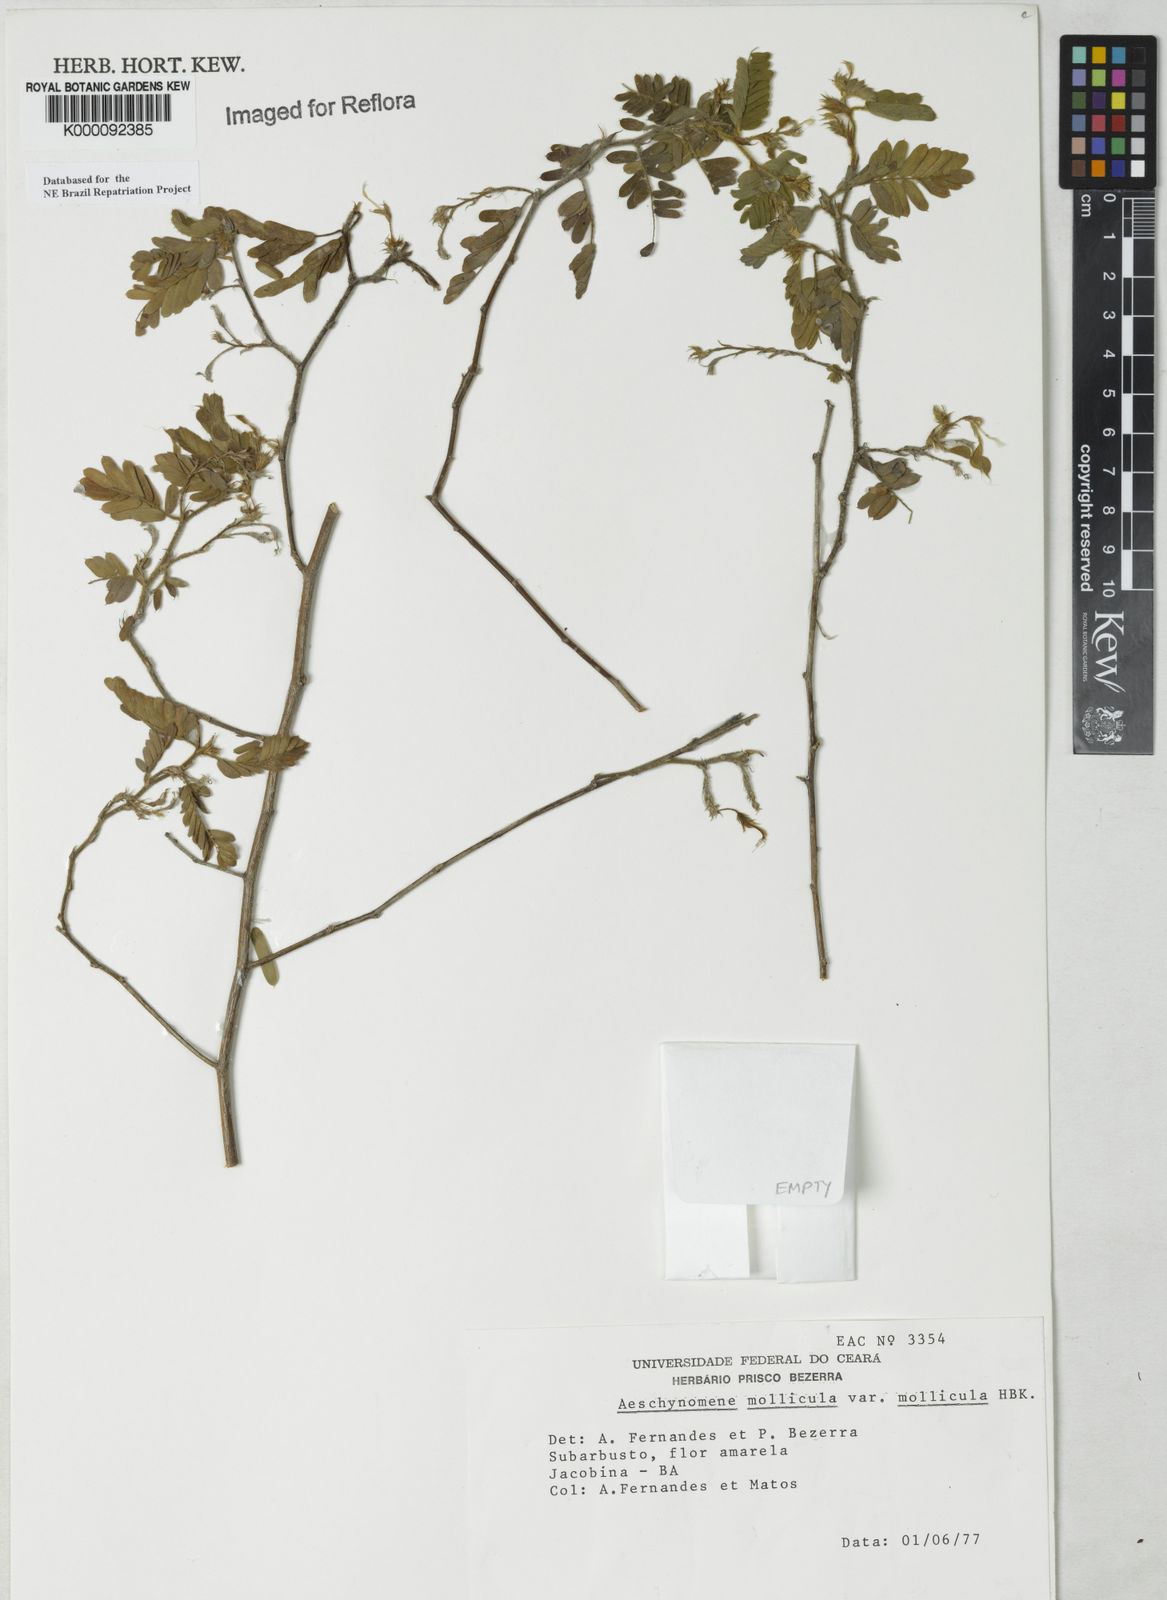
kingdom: Plantae
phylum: Tracheophyta
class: Magnoliopsida
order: Fabales
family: Fabaceae
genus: Ctenodon
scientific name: Ctenodon molliculus
